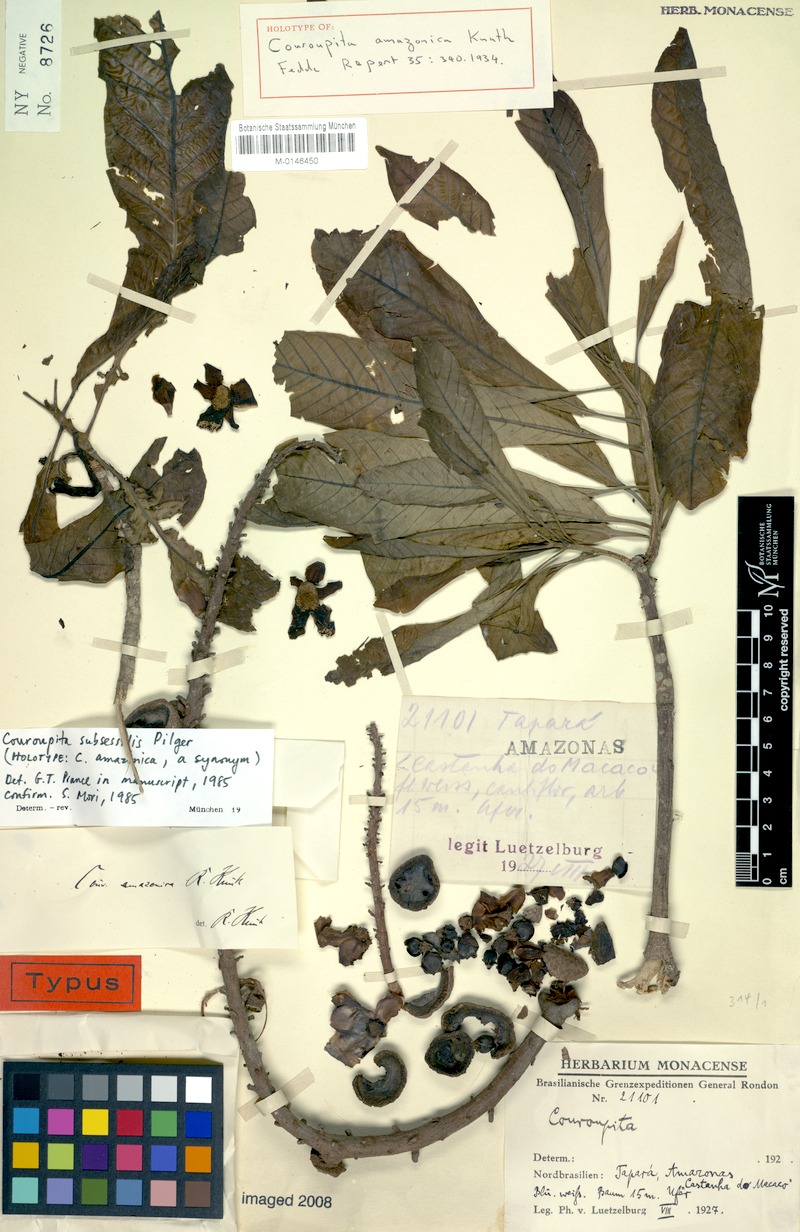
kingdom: Plantae
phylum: Tracheophyta
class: Magnoliopsida
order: Ericales
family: Lecythidaceae
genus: Couroupita
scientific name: Couroupita subsessilis
